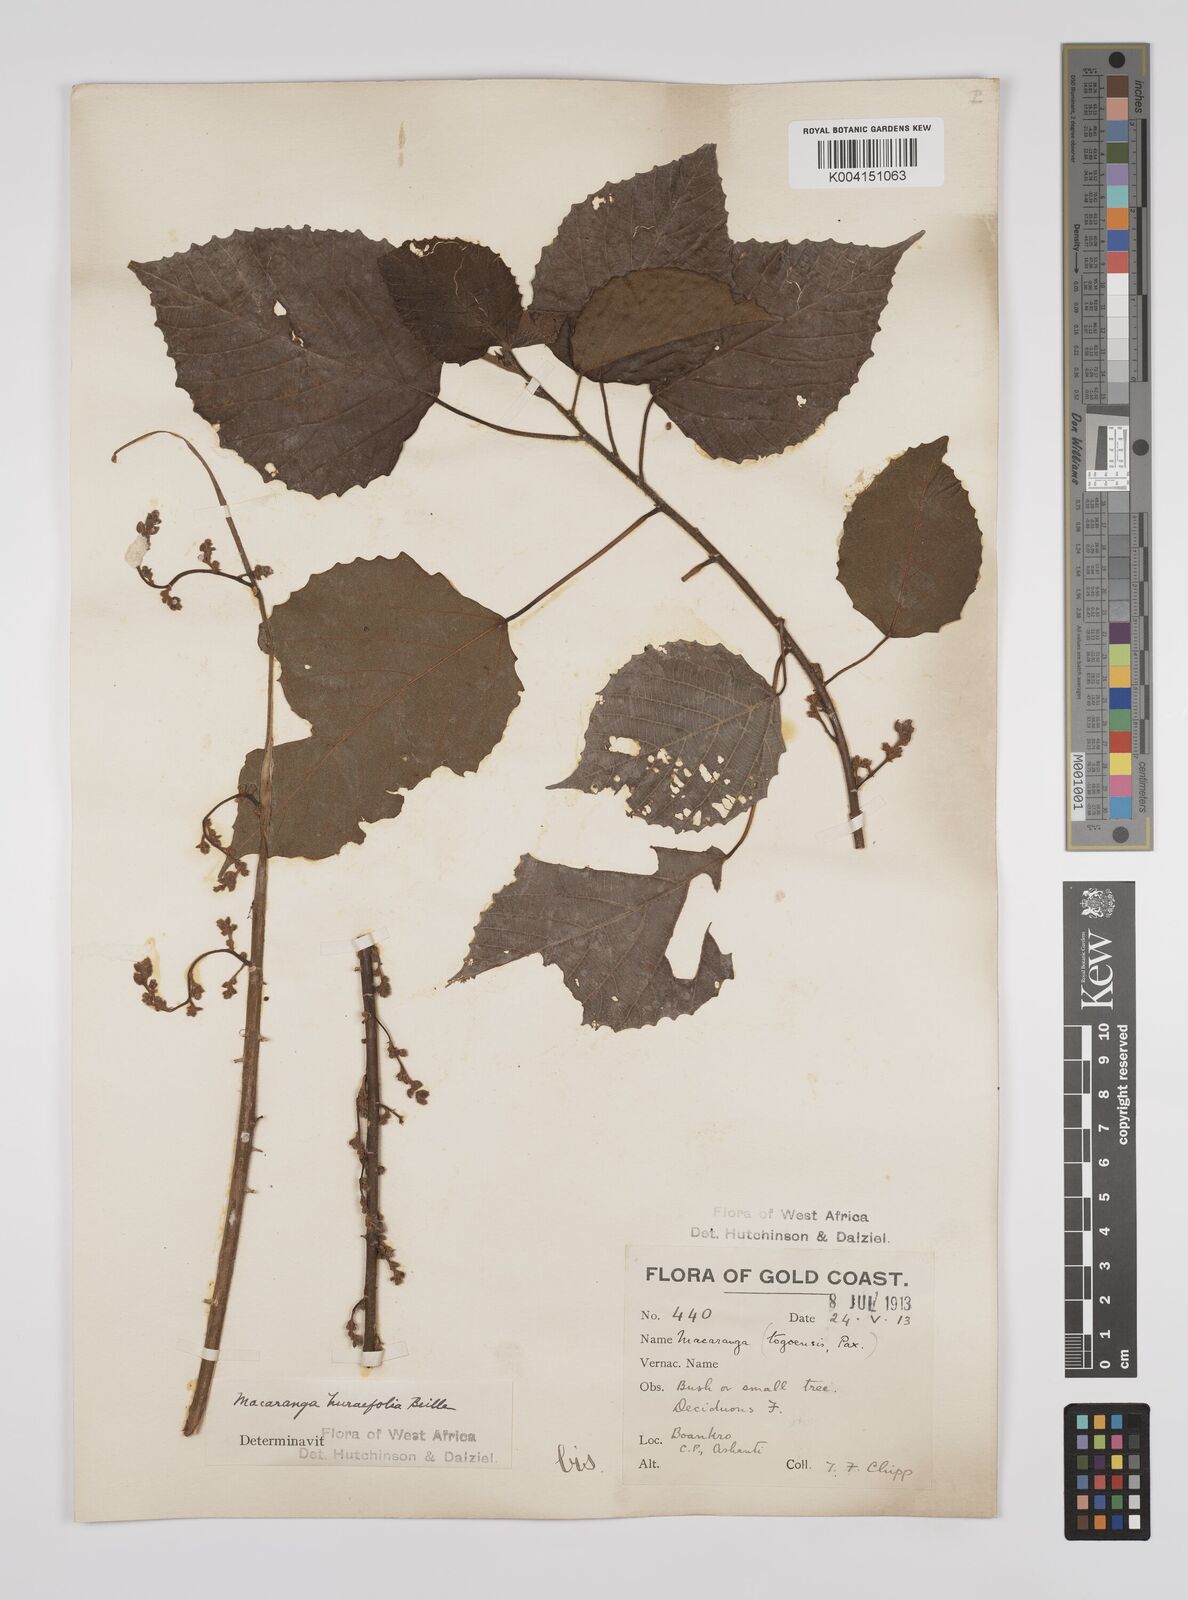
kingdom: Plantae
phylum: Tracheophyta
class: Magnoliopsida
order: Malpighiales
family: Euphorbiaceae
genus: Macaranga
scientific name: Macaranga hurifolia
